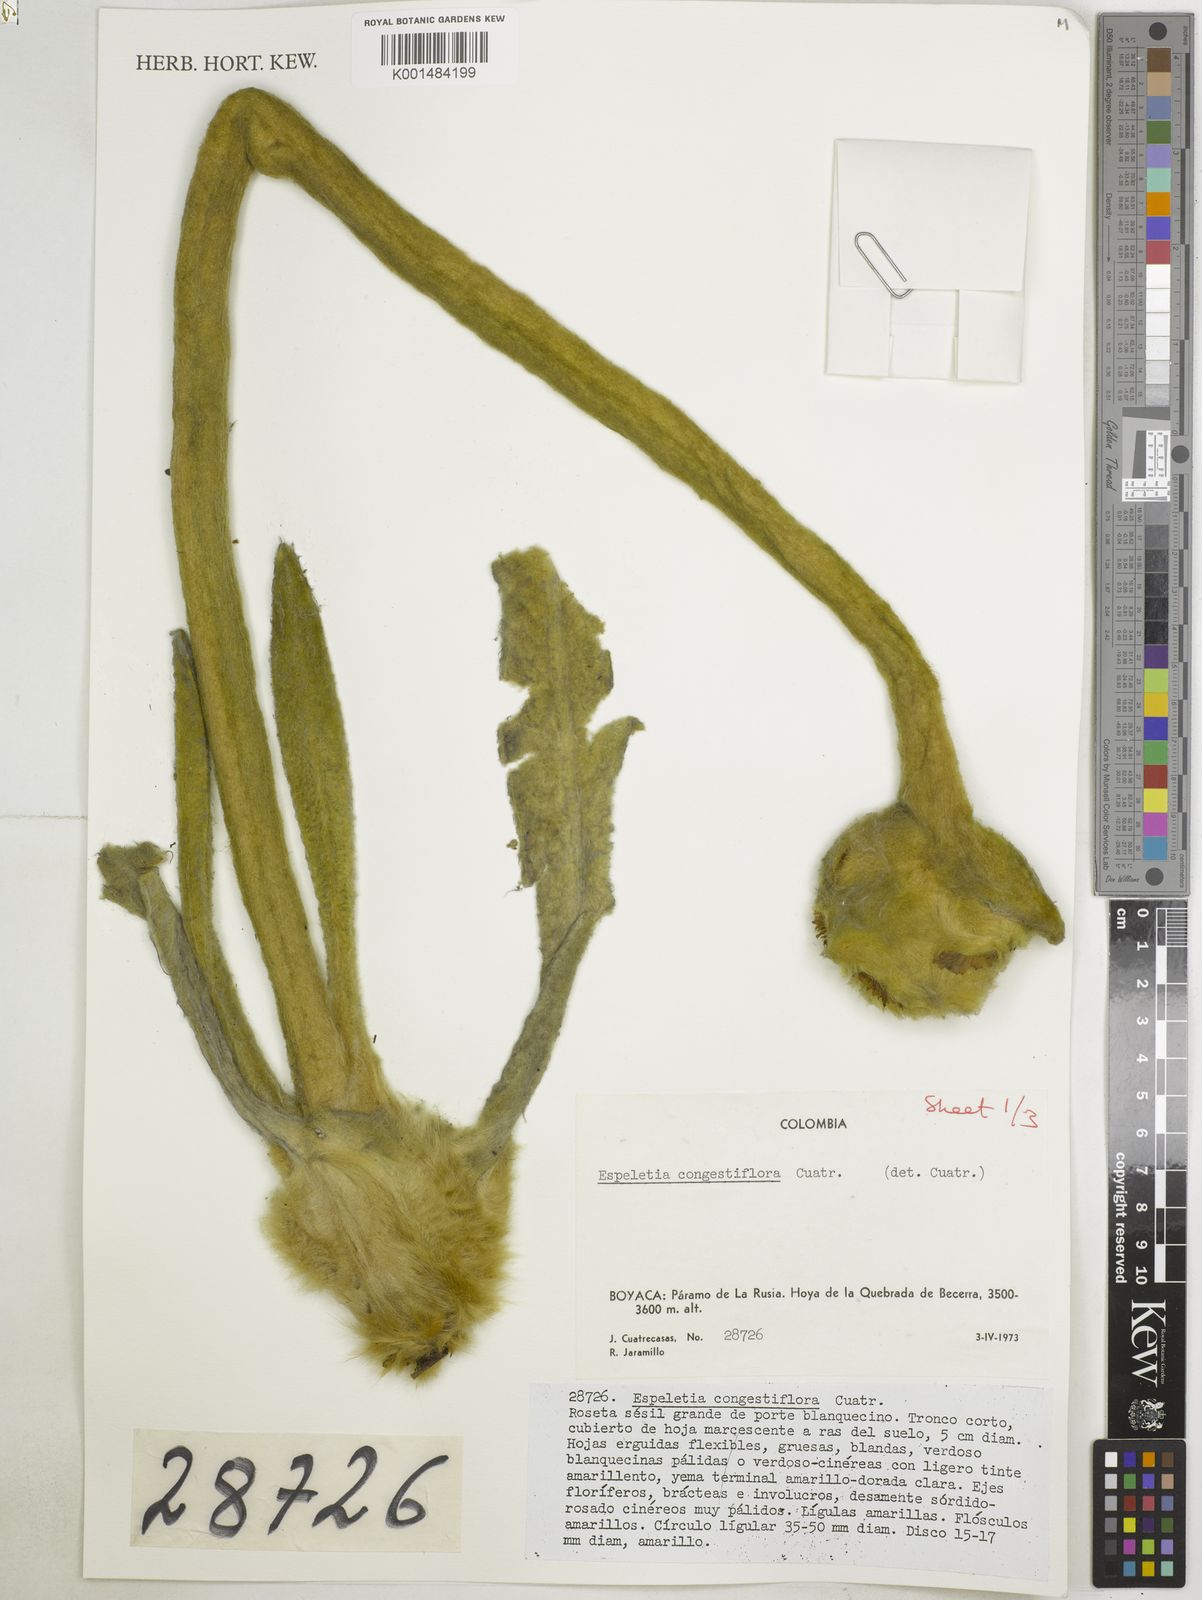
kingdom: Plantae
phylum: Tracheophyta
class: Magnoliopsida
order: Asterales
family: Asteraceae
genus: Espeletia
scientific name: Espeletia congestiflora
